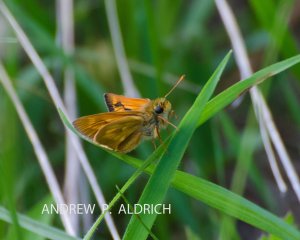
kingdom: Animalia
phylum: Arthropoda
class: Insecta
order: Lepidoptera
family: Hesperiidae
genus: Polites
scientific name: Polites
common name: Long Dash Skipper
